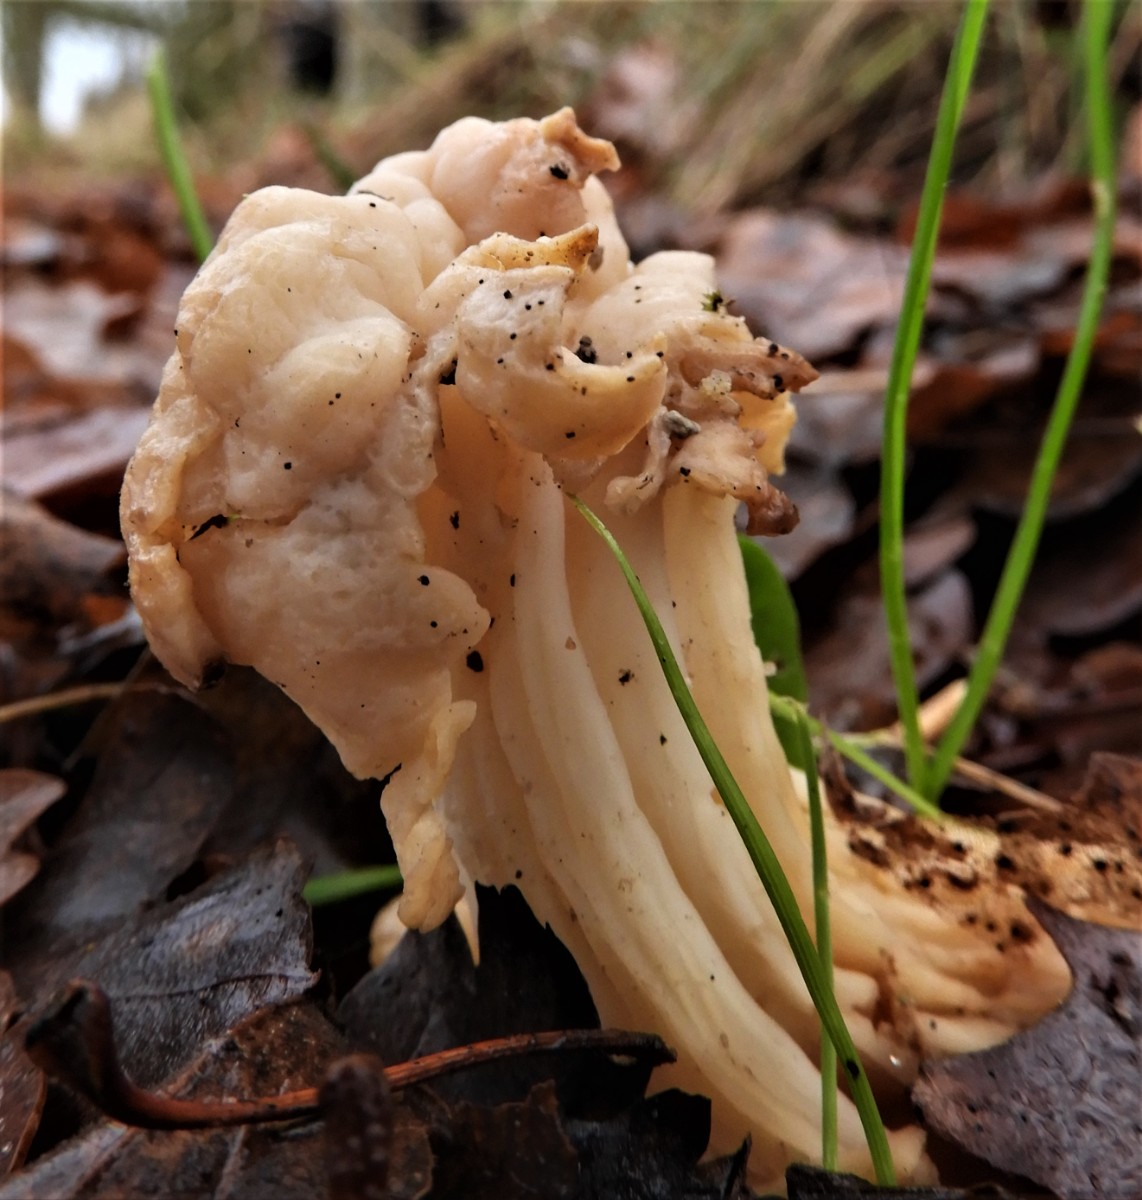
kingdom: Fungi
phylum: Ascomycota
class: Pezizomycetes
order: Pezizales
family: Helvellaceae
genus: Helvella
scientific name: Helvella crispa
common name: kruset foldhat
